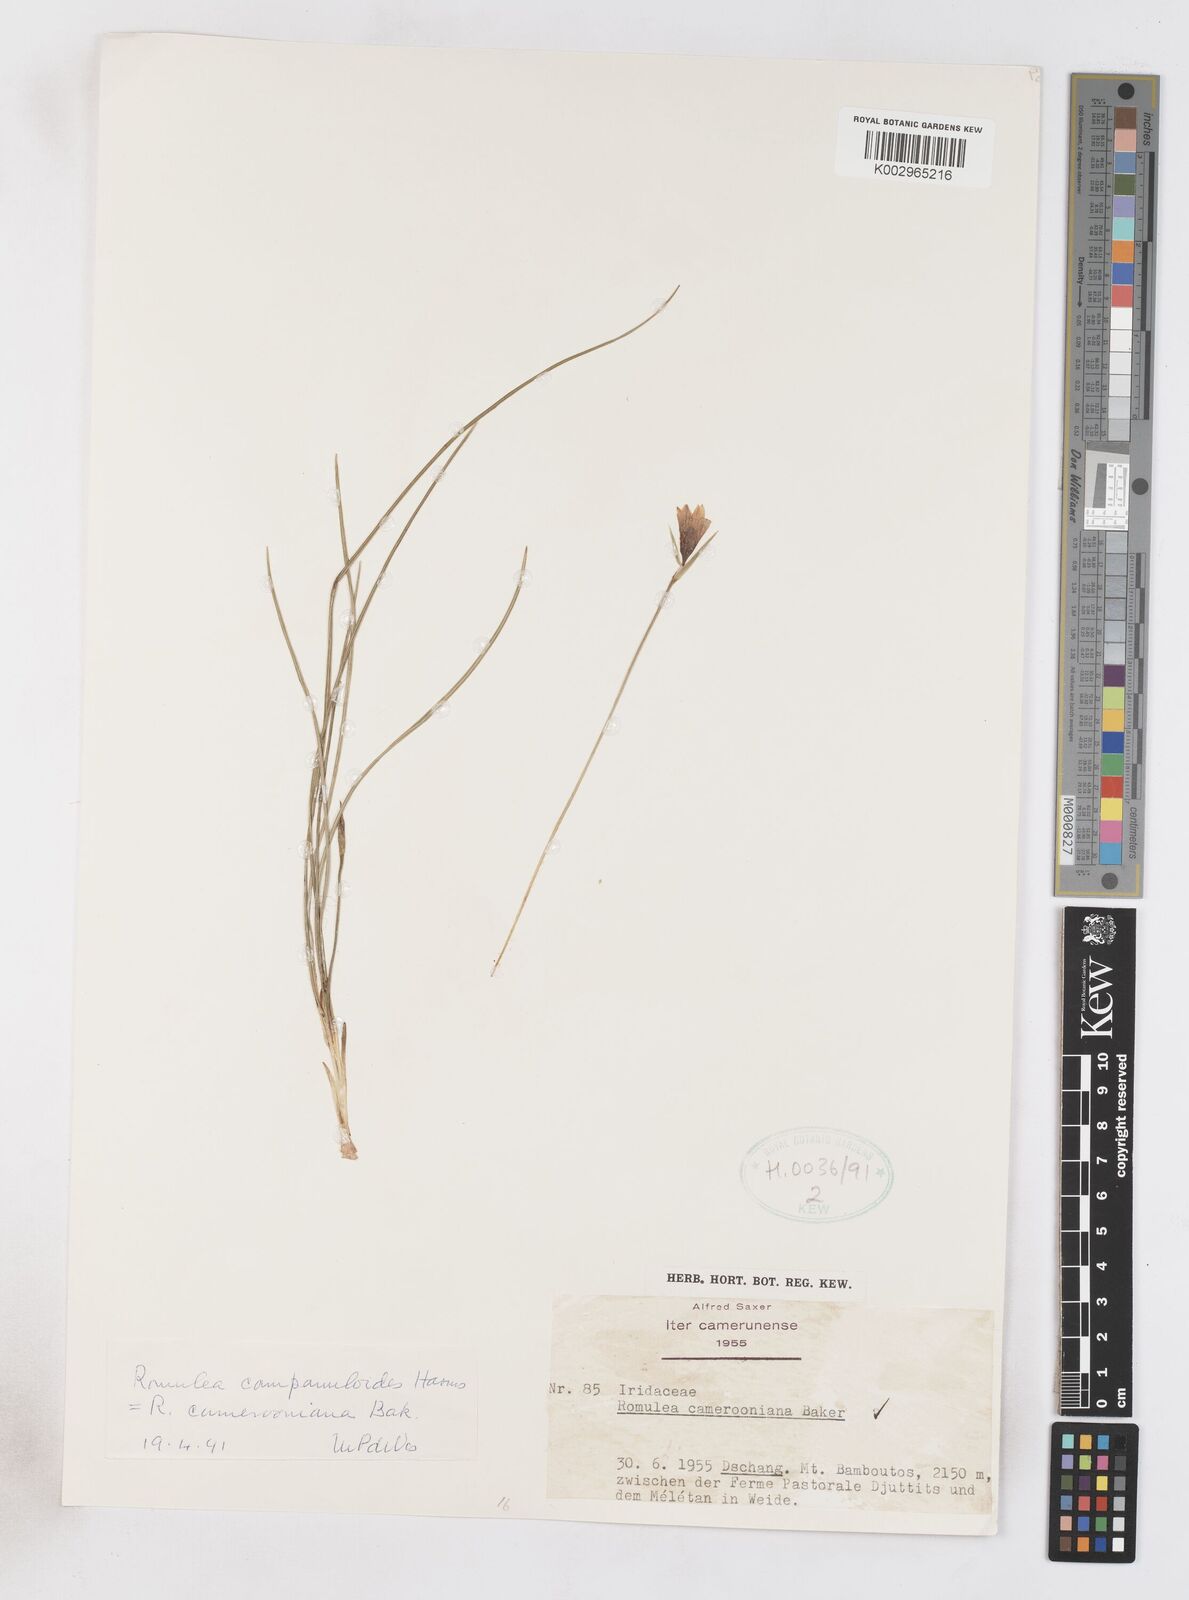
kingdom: Plantae
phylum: Tracheophyta
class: Liliopsida
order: Asparagales
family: Iridaceae
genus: Romulea
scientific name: Romulea camerooniana
